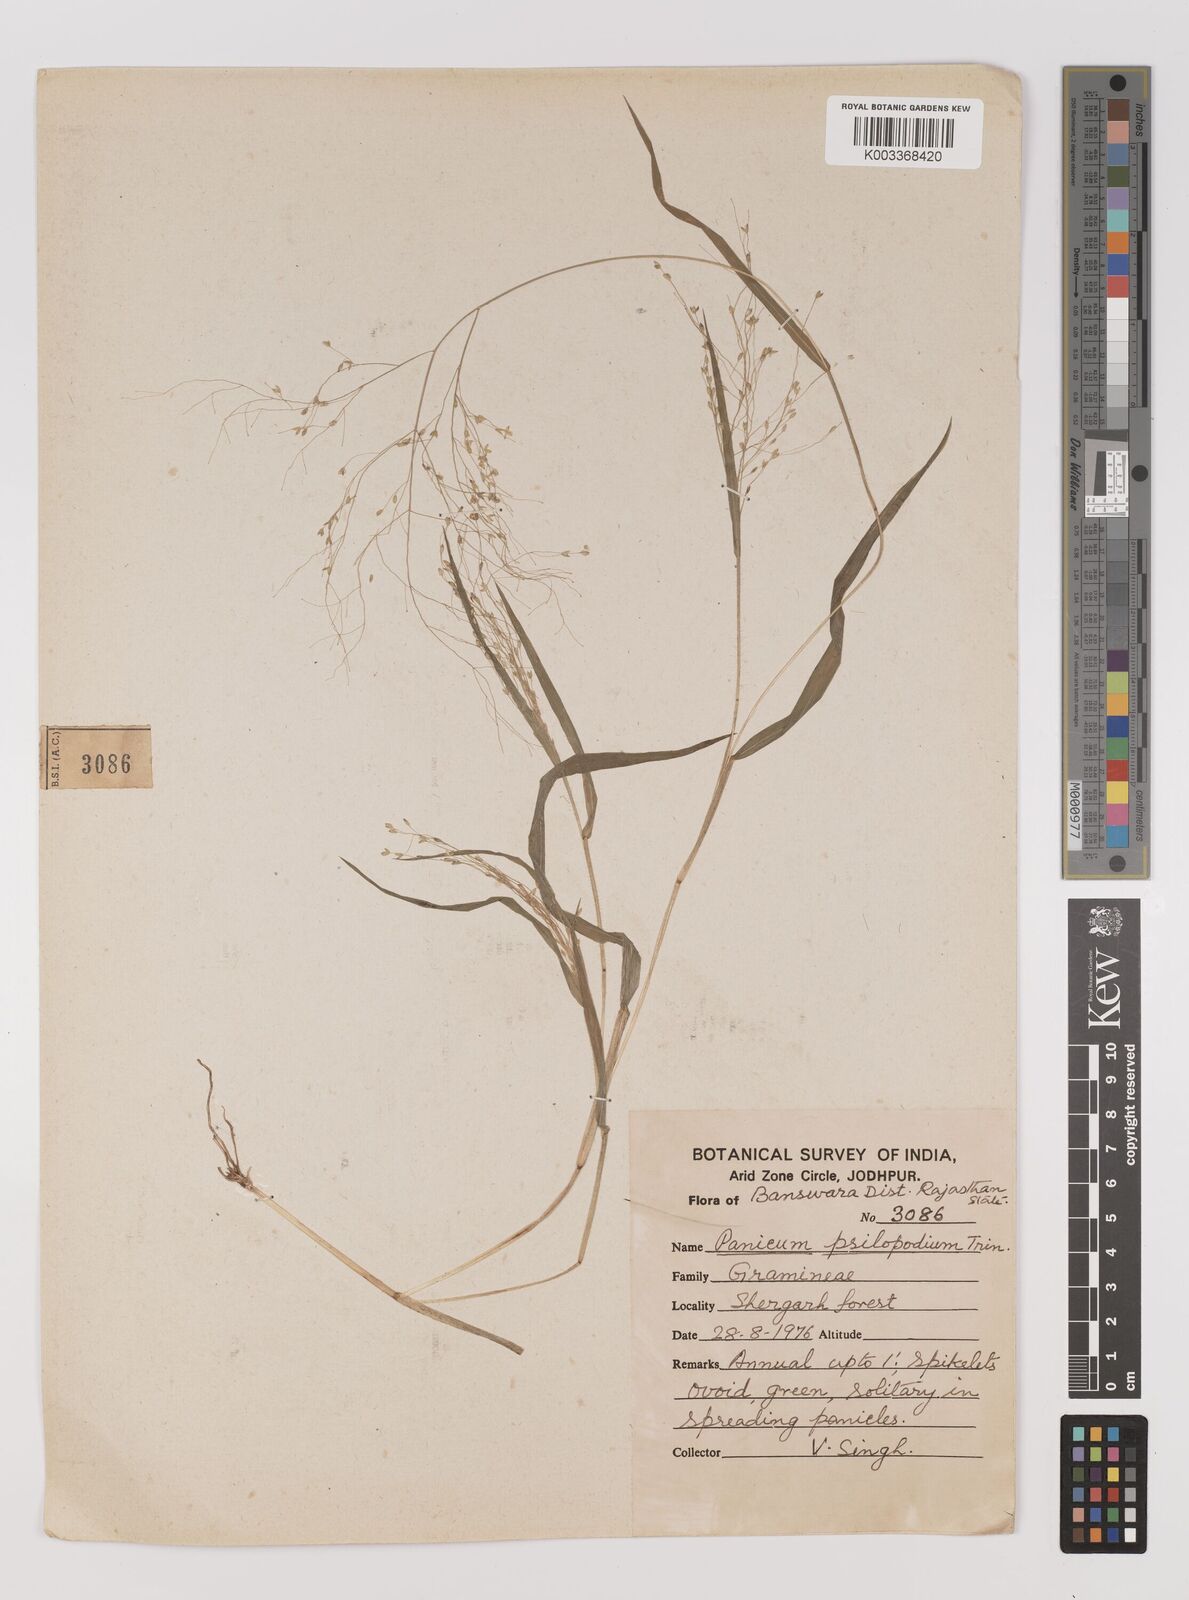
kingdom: Plantae
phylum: Tracheophyta
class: Liliopsida
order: Poales
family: Poaceae
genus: Panicum
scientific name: Panicum sumatrense
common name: Little millet
